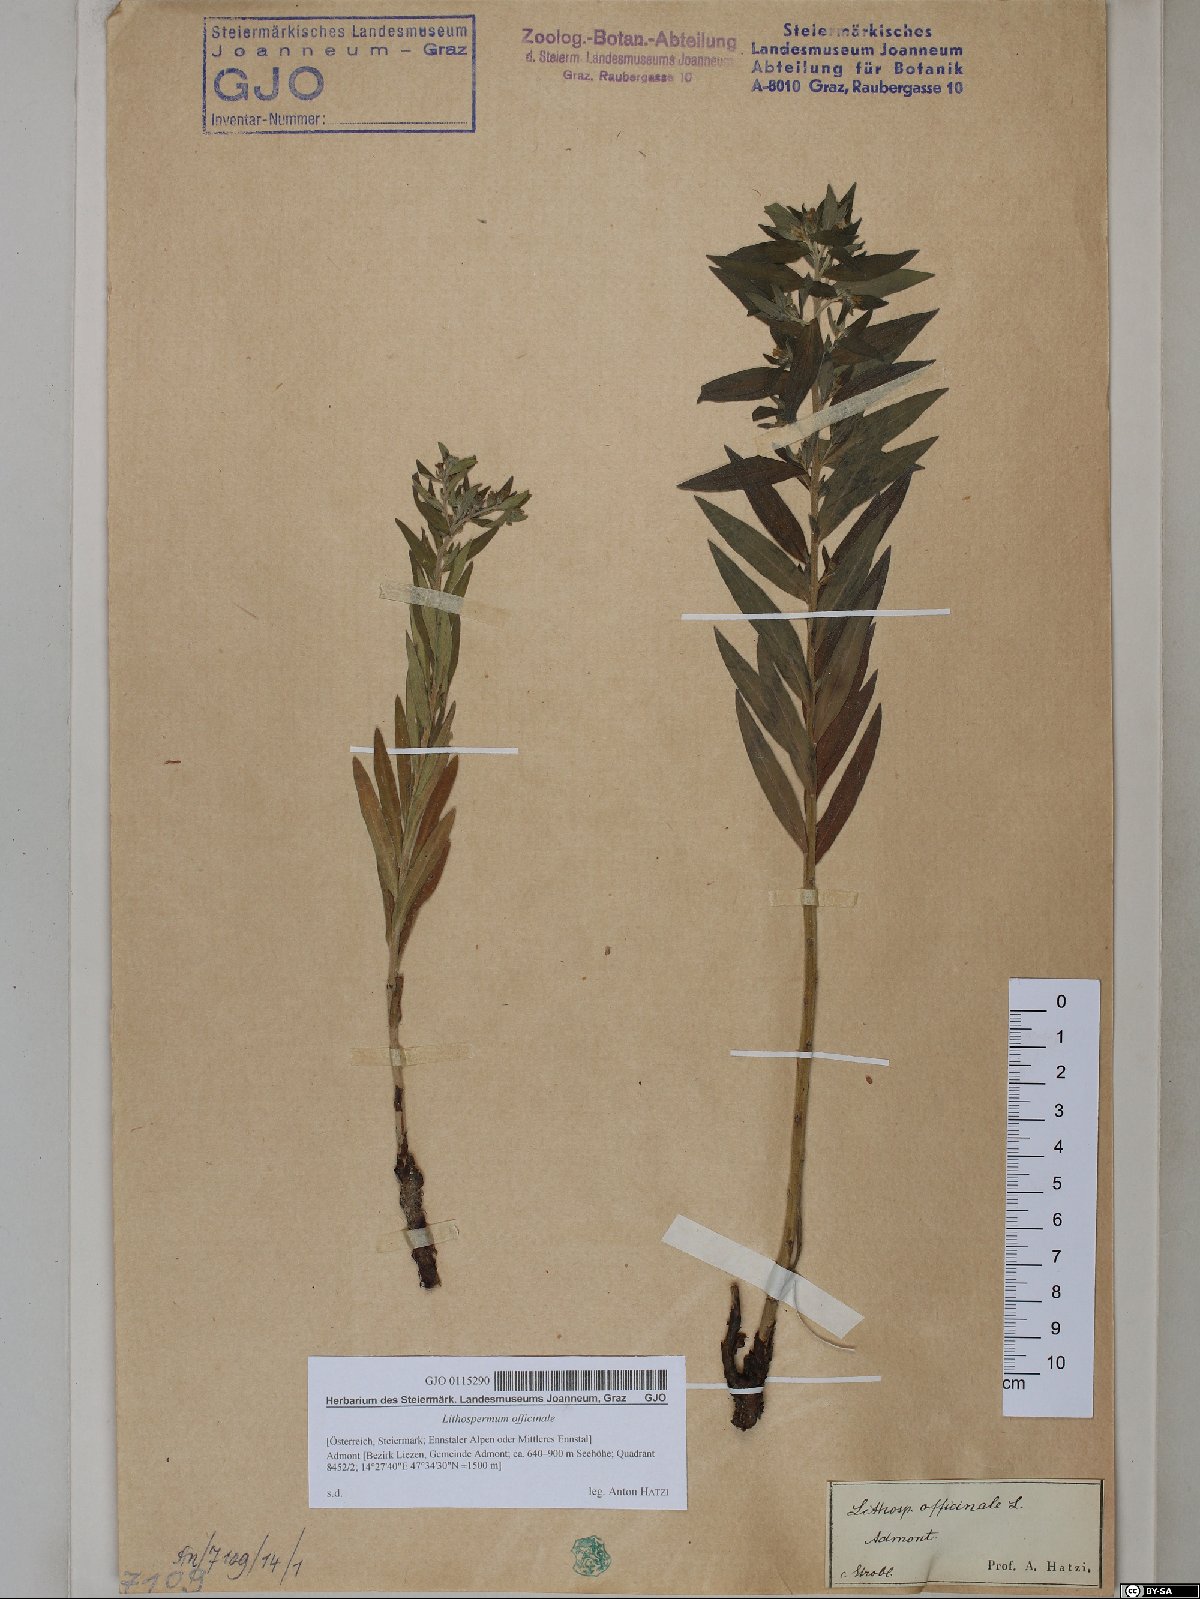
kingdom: Plantae
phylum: Tracheophyta
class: Magnoliopsida
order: Boraginales
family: Boraginaceae
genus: Lithospermum
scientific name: Lithospermum officinale
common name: Common gromwell
